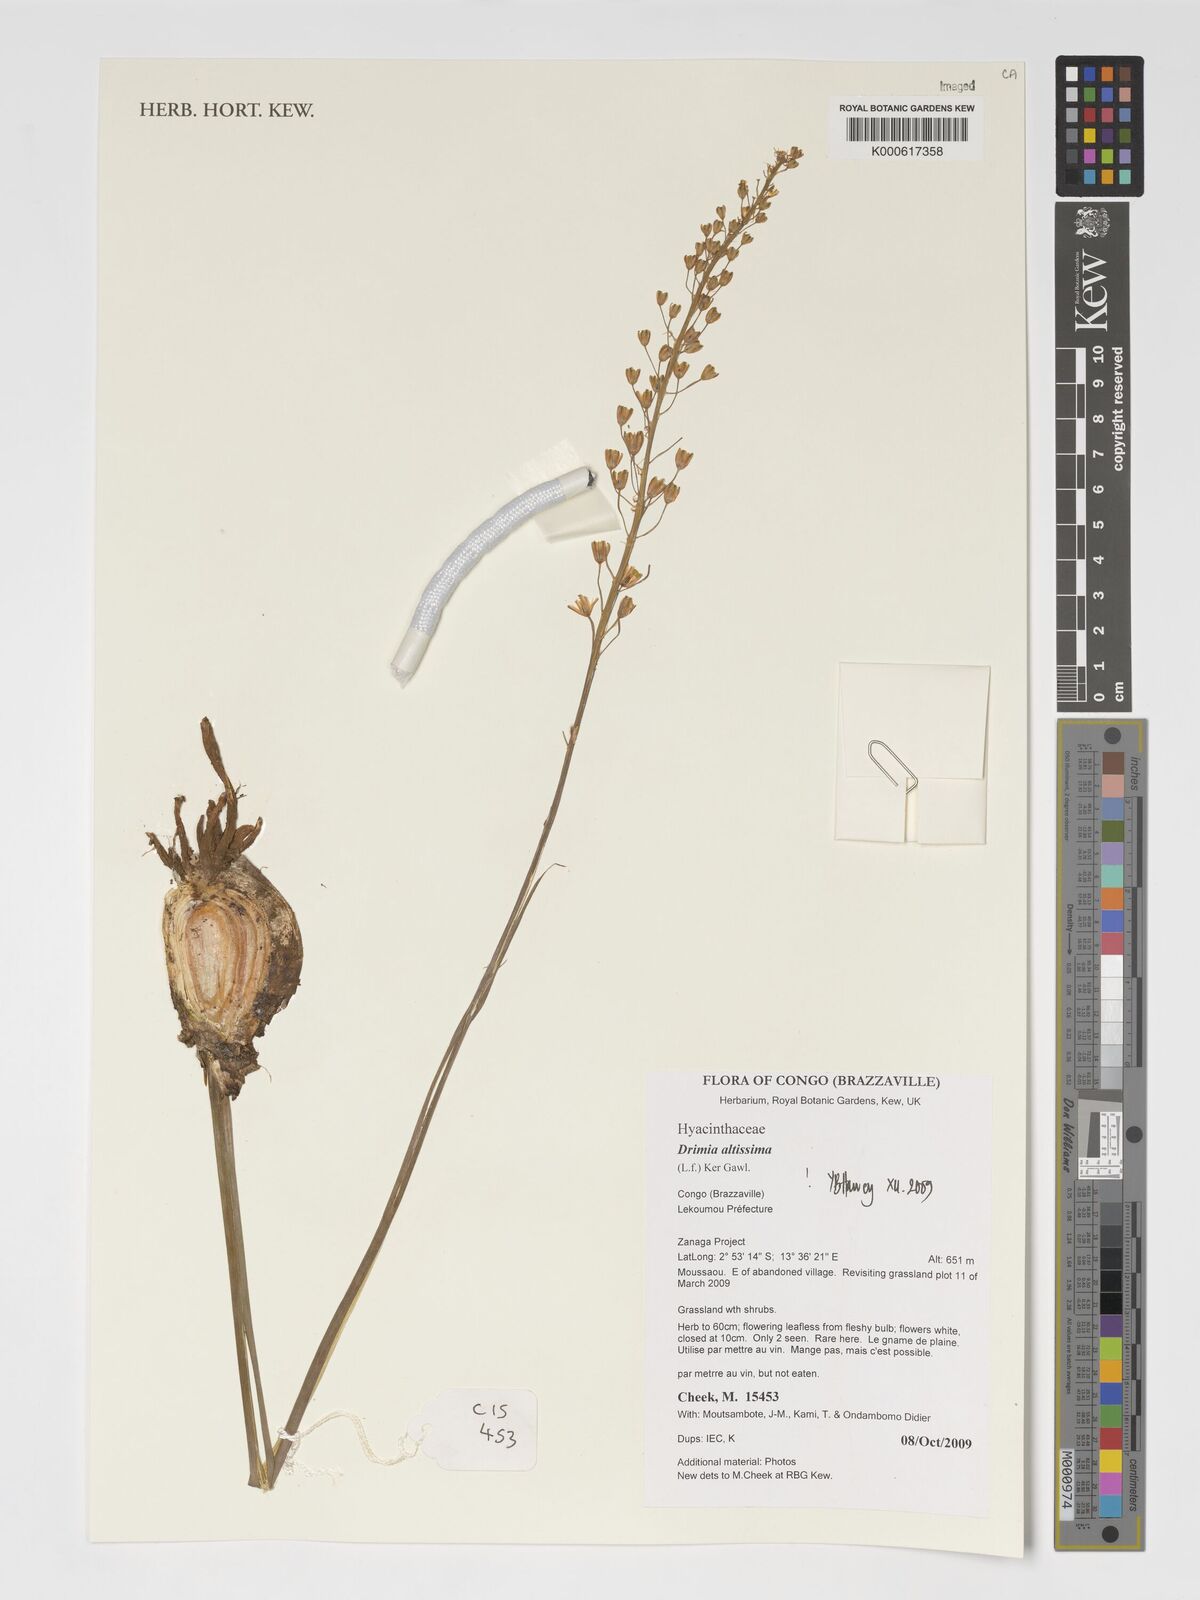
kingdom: Plantae
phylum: Tracheophyta
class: Liliopsida
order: Asparagales
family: Asparagaceae
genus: Drimia
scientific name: Drimia altissima
